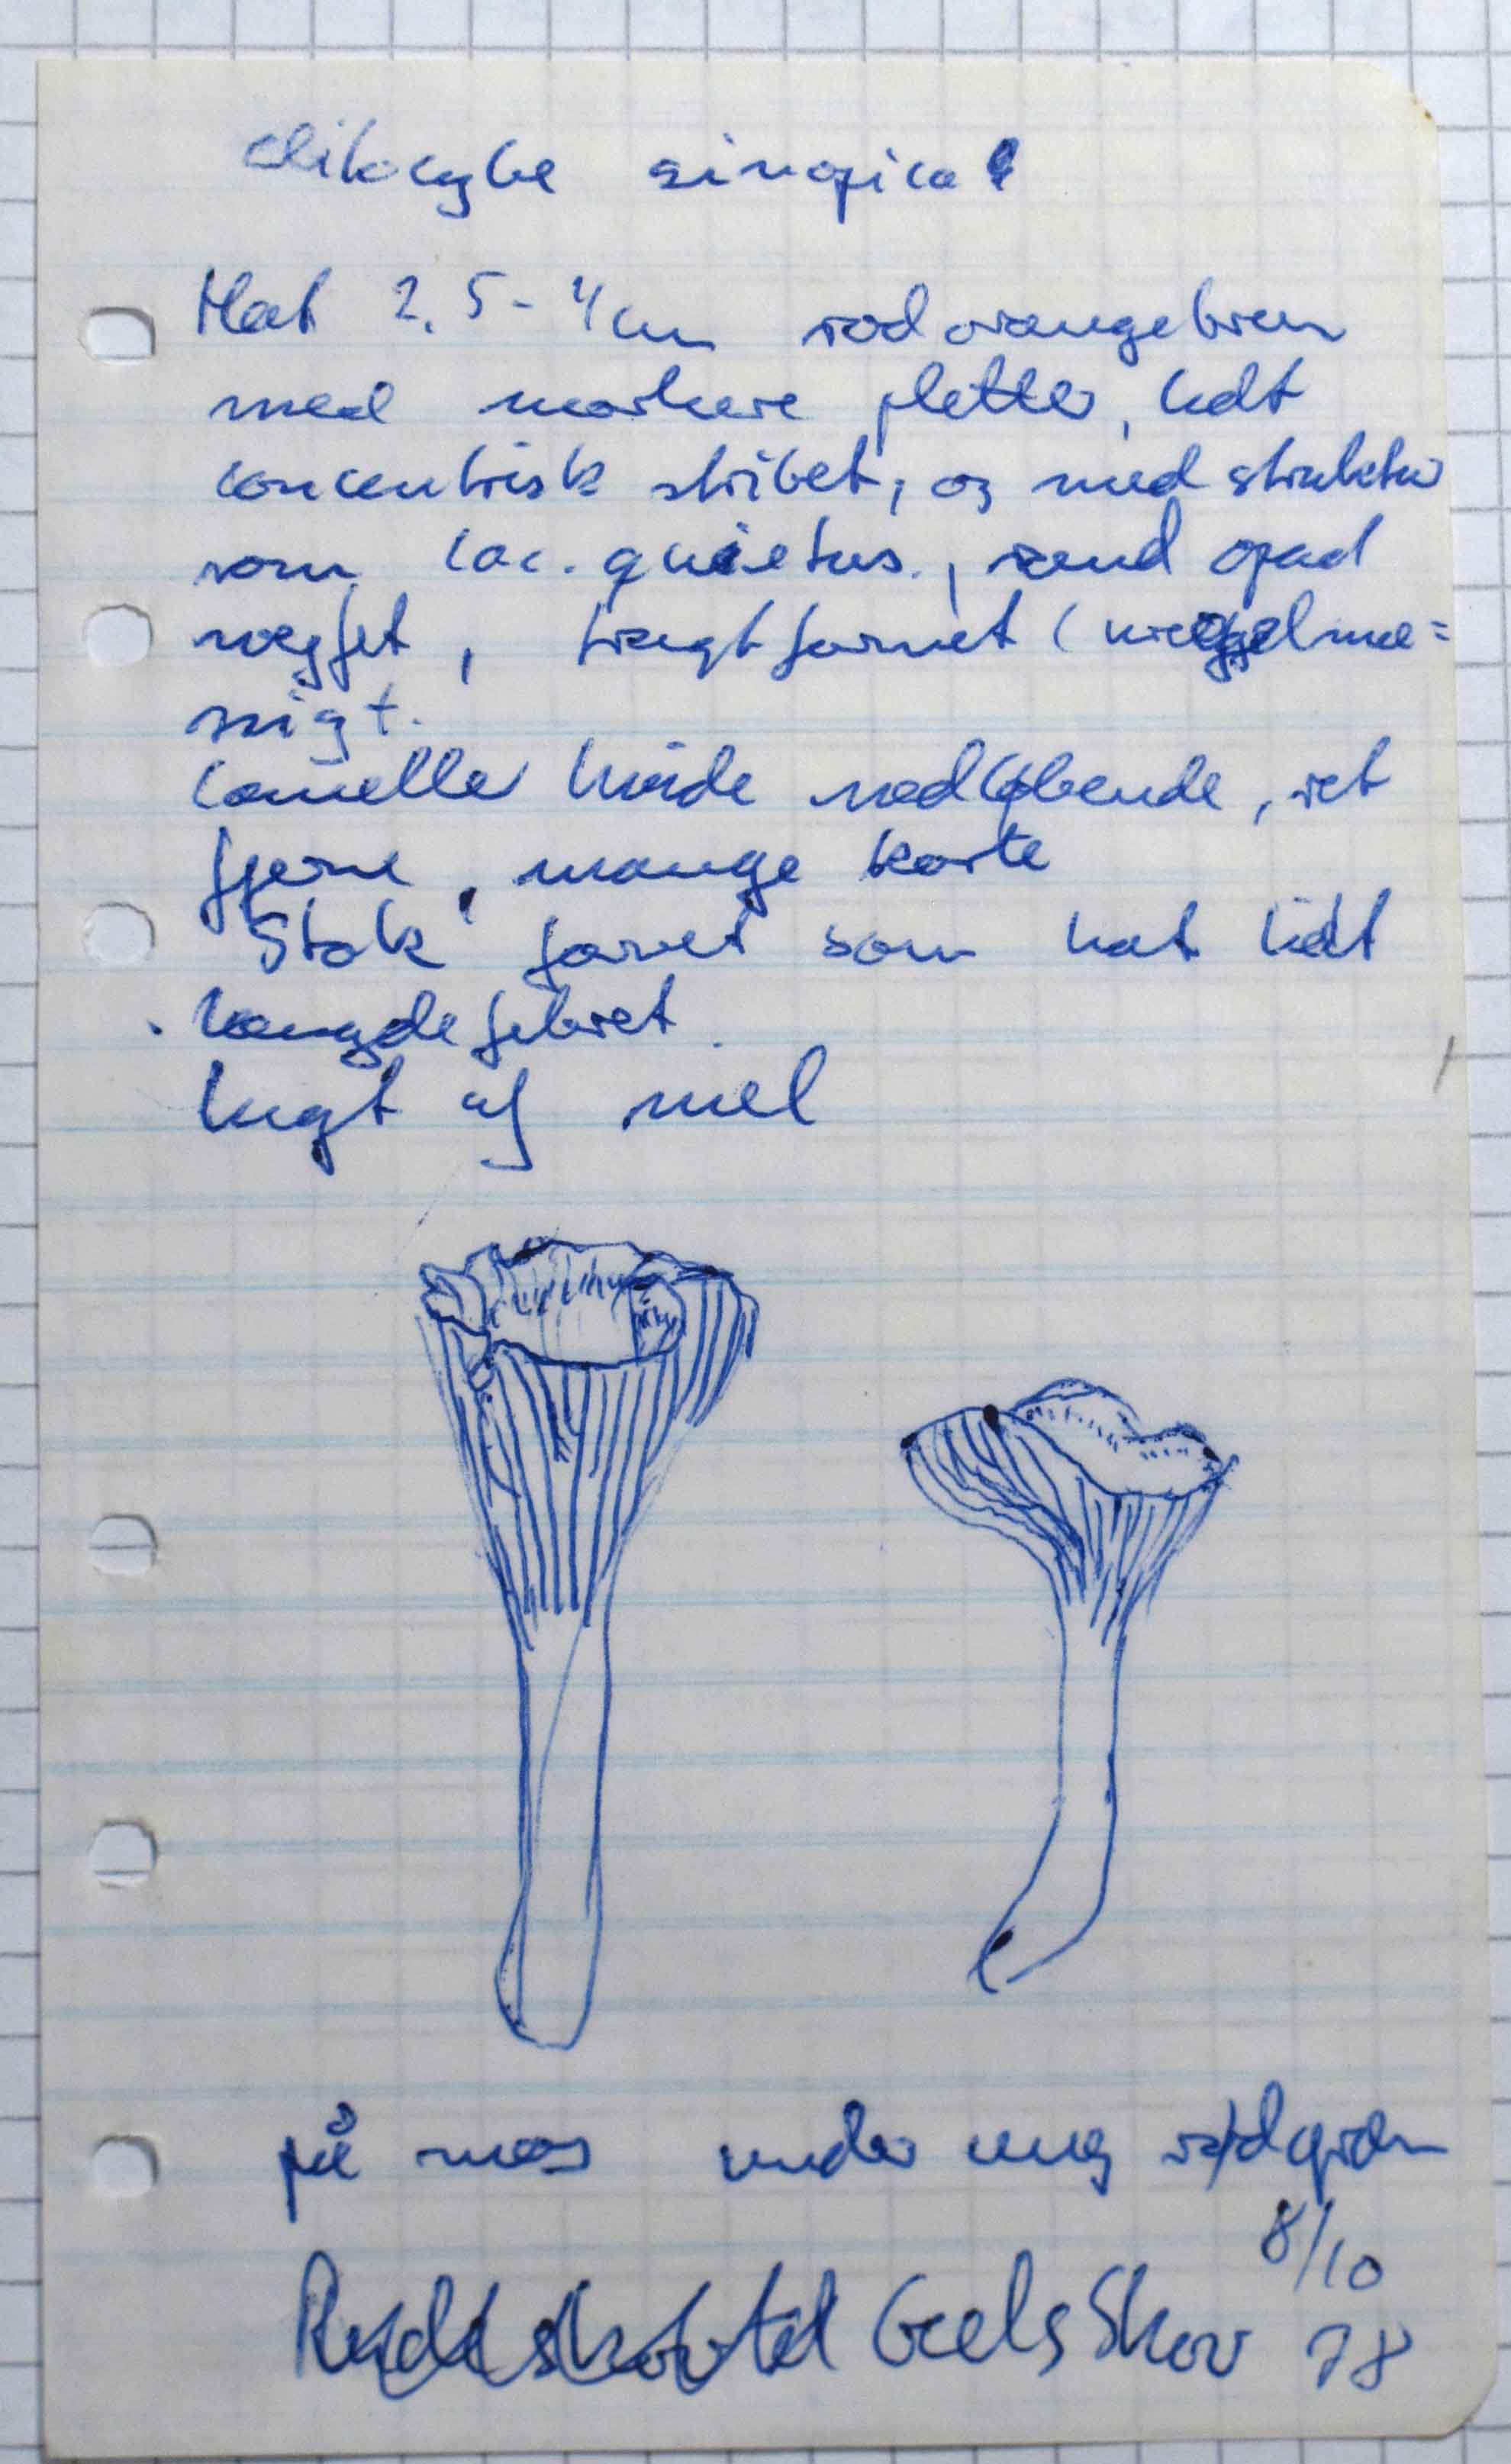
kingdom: Fungi
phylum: Basidiomycota
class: Agaricomycetes
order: Agaricales
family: Pseudoclitocybaceae
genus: Bonomyces
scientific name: Bonomyces sinopicus
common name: svedje-tragthat
